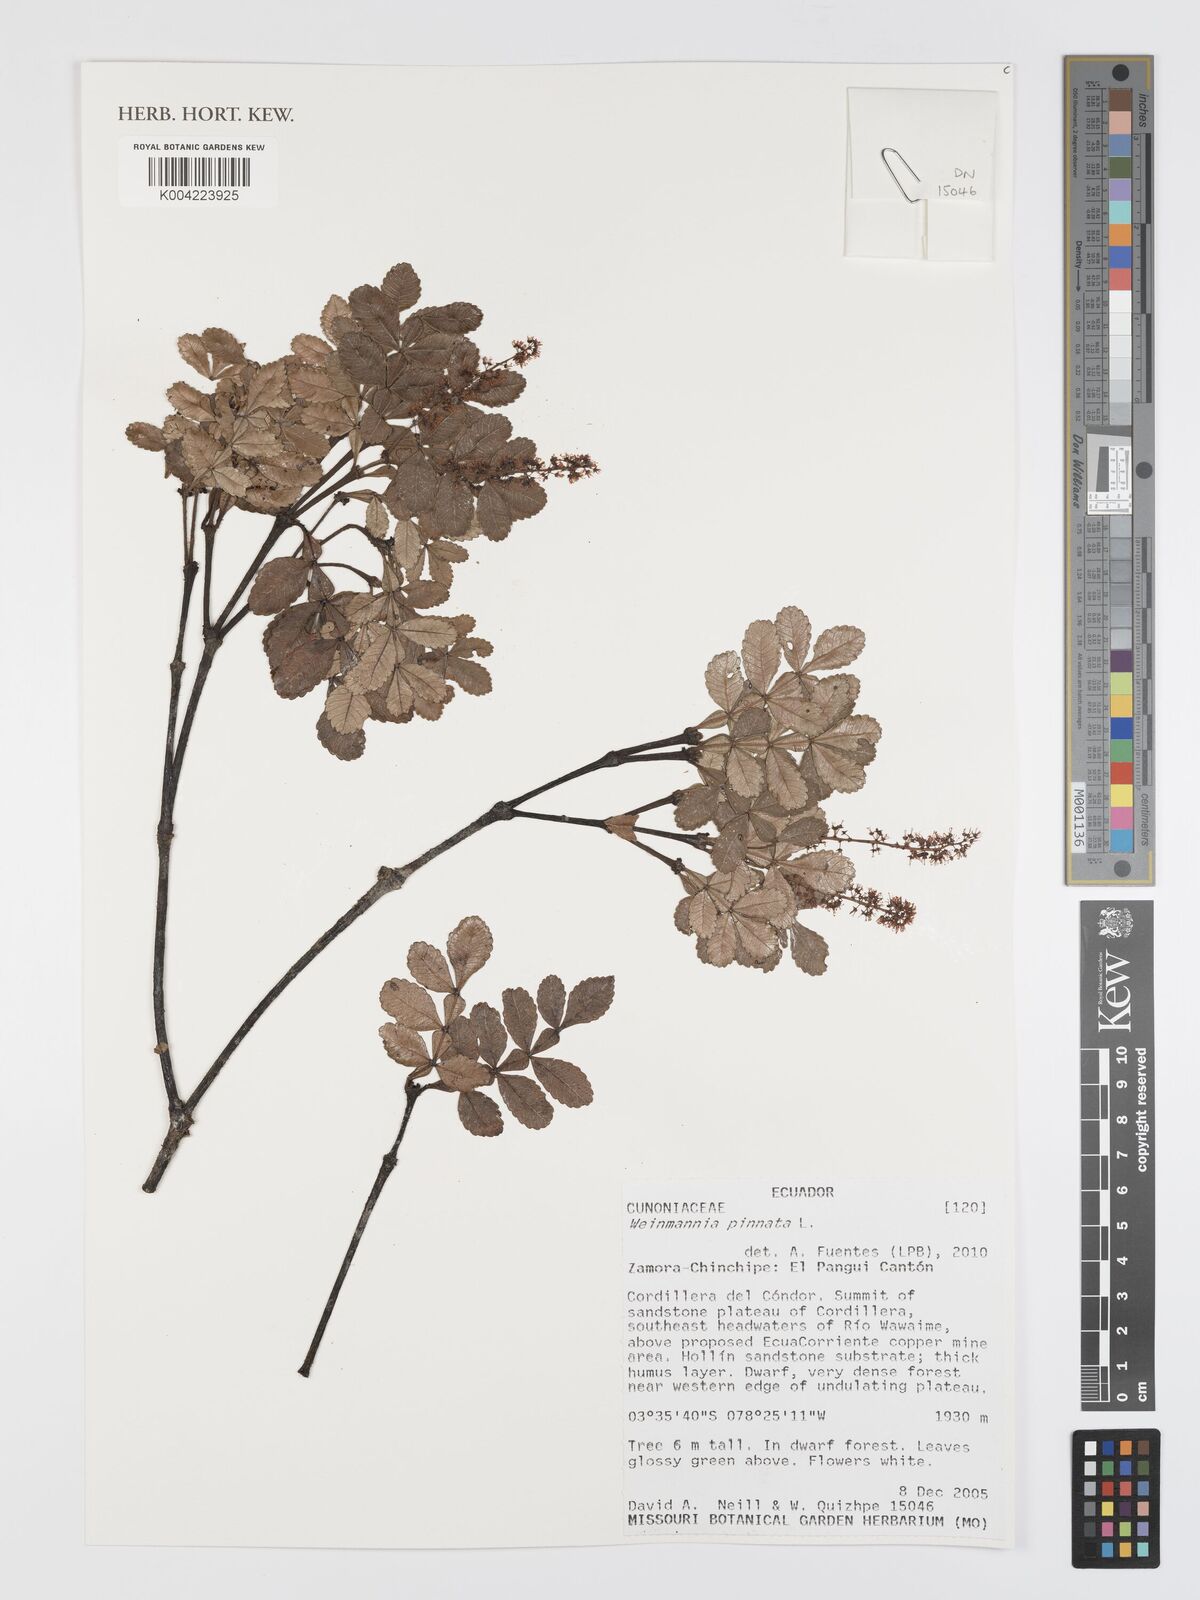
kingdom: Plantae
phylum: Tracheophyta
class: Magnoliopsida
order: Oxalidales
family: Cunoniaceae
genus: Weinmannia
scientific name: Weinmannia pinnata
